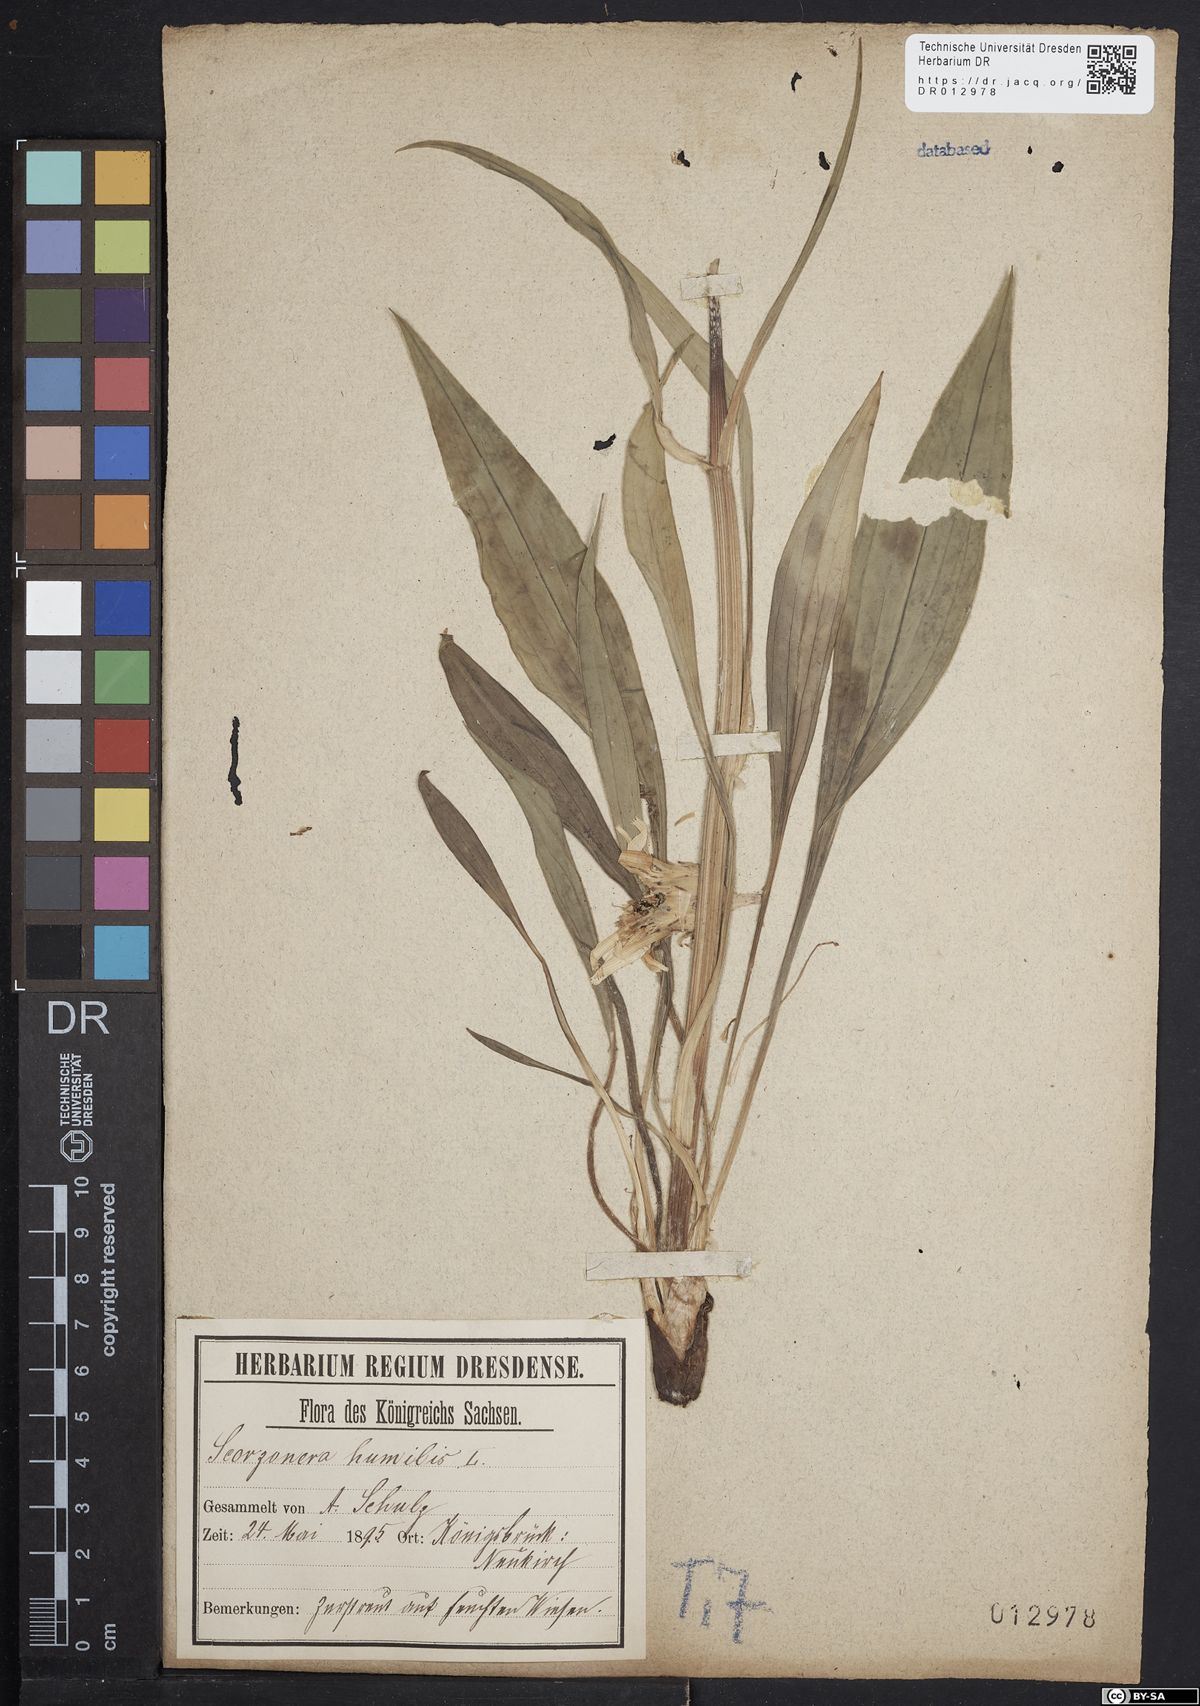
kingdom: Plantae
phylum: Tracheophyta
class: Magnoliopsida
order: Asterales
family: Asteraceae
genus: Scorzonera
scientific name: Scorzonera humilis
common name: Viper's-grass
